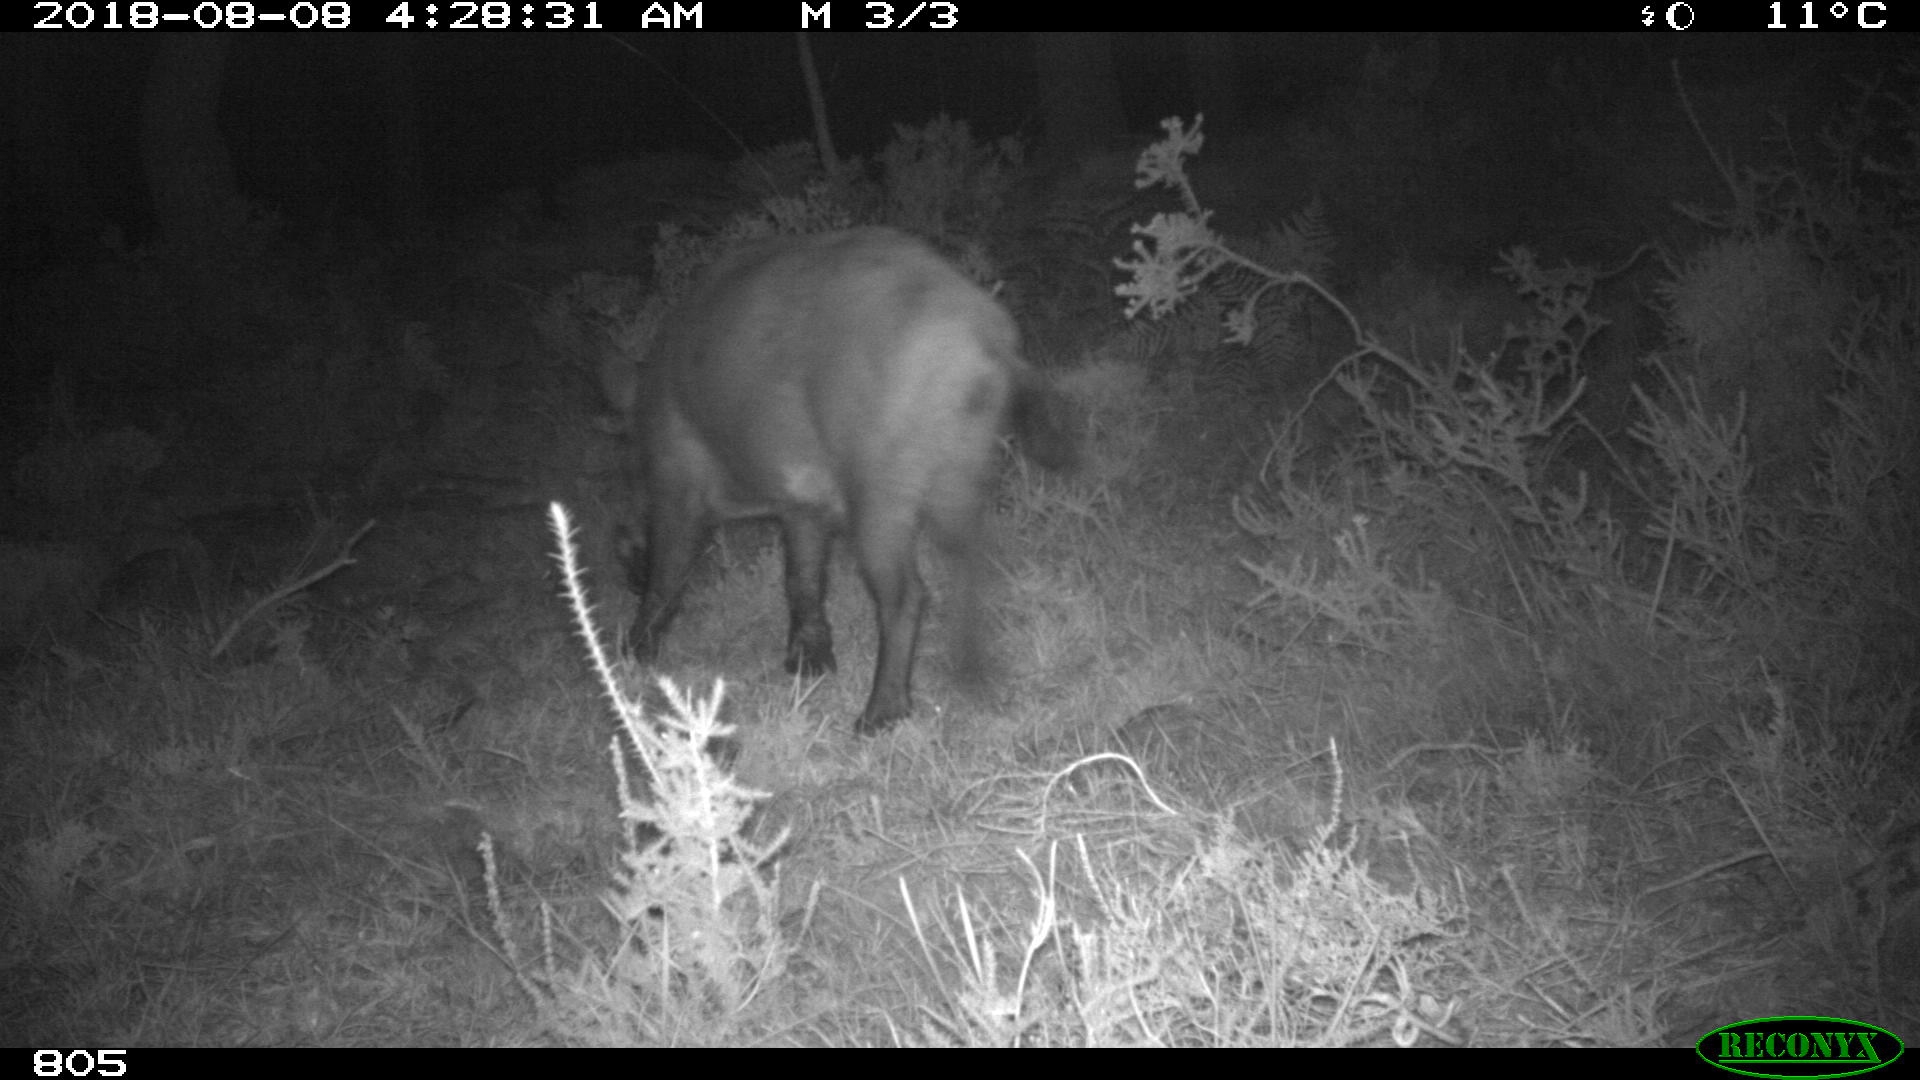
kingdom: Animalia
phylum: Chordata
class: Mammalia
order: Artiodactyla
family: Bovidae
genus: Bos
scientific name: Bos taurus
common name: Domesticated cattle
